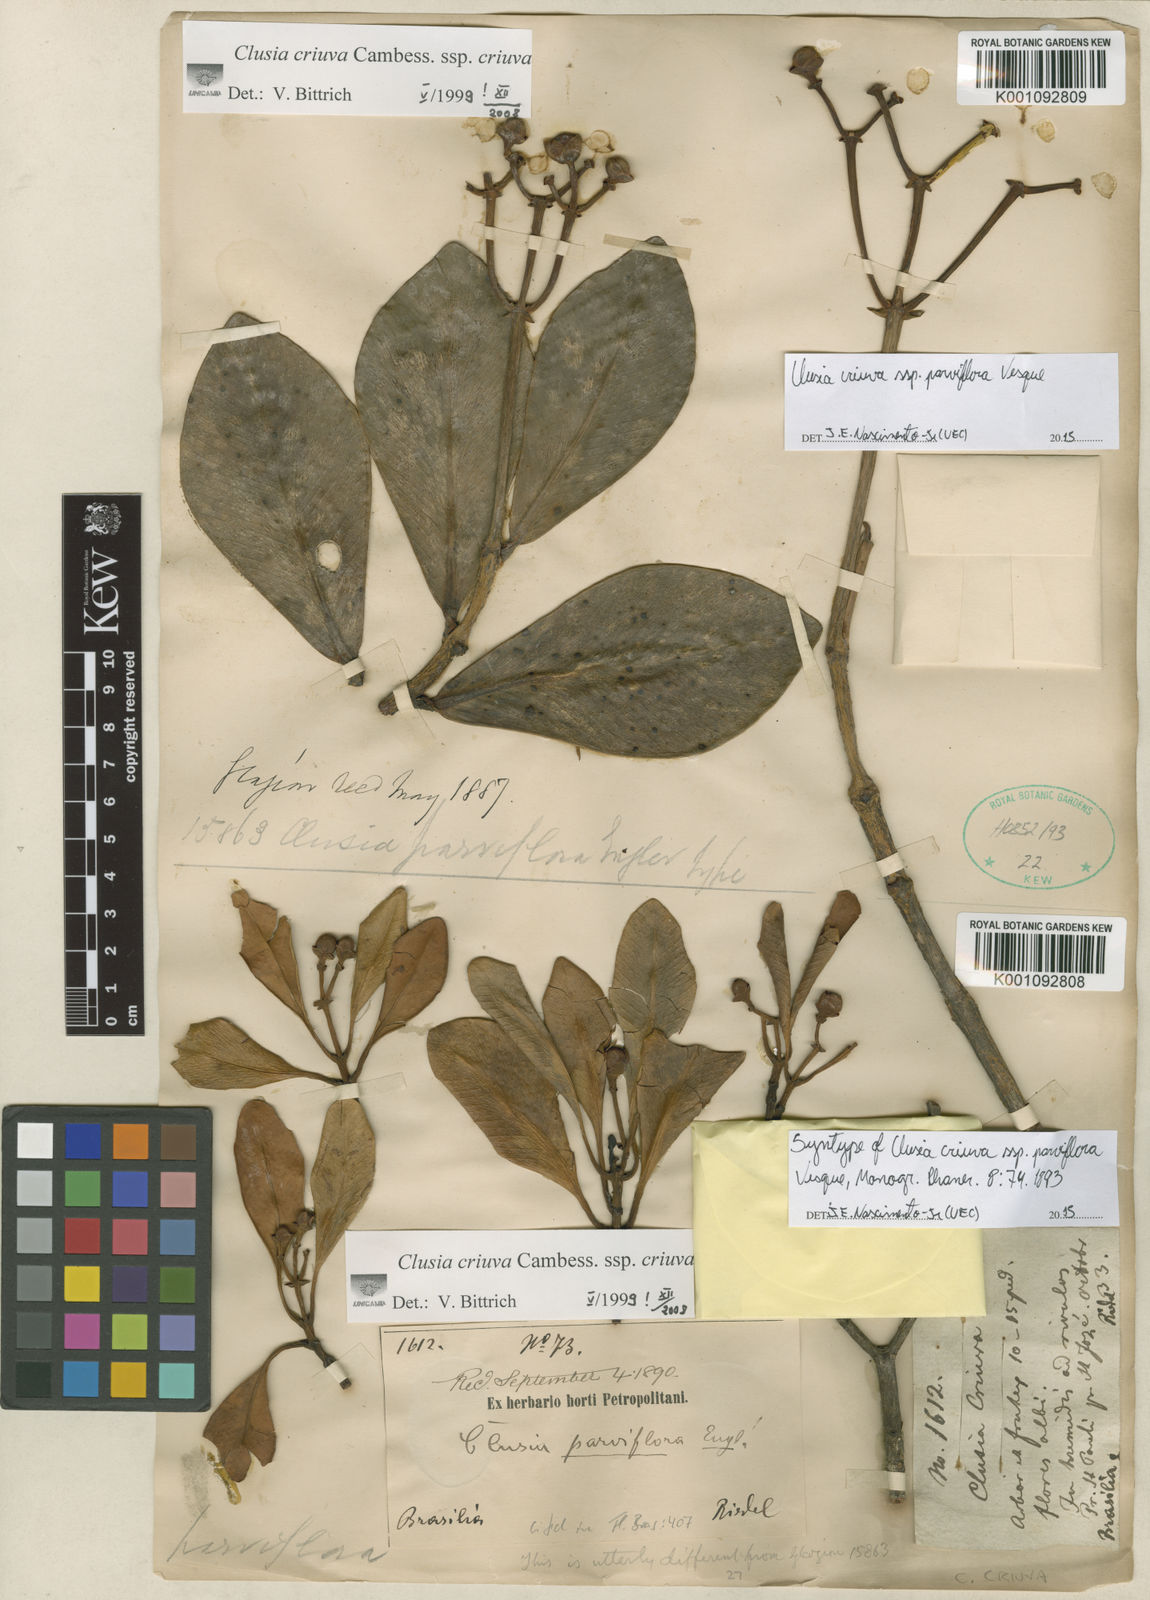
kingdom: Plantae
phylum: Tracheophyta
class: Magnoliopsida
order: Malpighiales
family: Clusiaceae
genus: Clusia
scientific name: Clusia criuva
